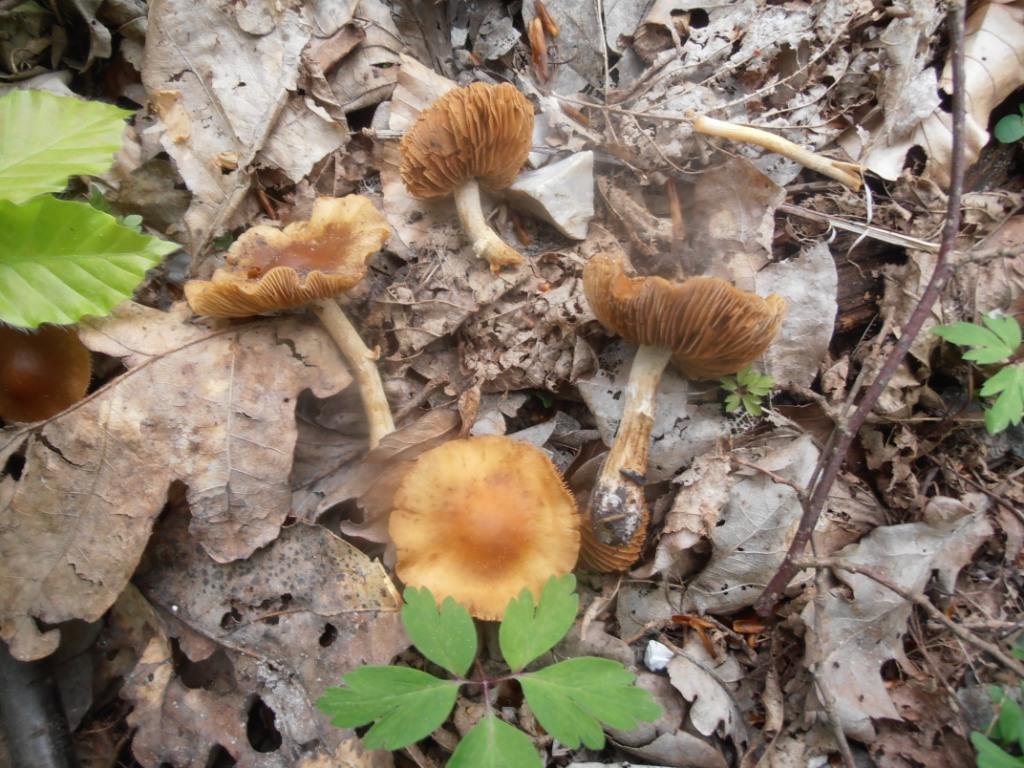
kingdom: Fungi
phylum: Basidiomycota
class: Agaricomycetes
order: Agaricales
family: Bolbitiaceae
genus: Conocybe
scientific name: Conocybe aporos
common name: tidlig dansehat
